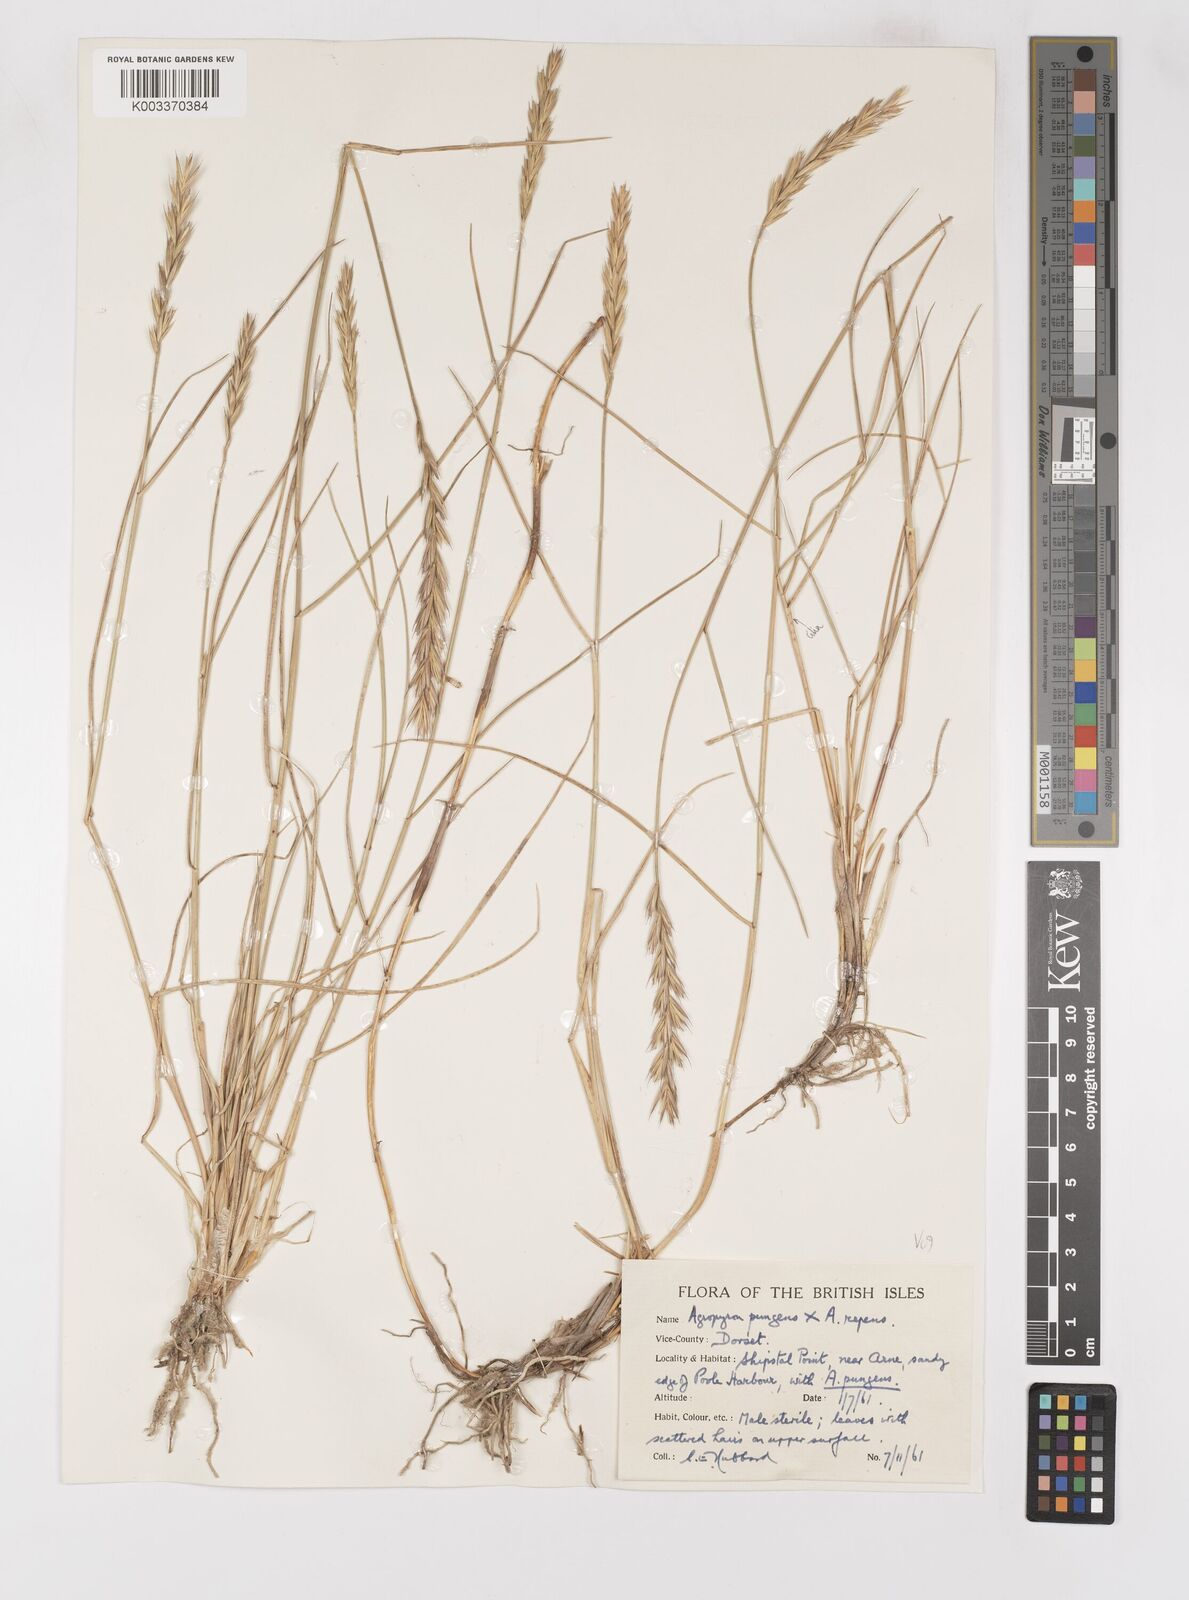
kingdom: Plantae
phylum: Tracheophyta
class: Liliopsida
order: Poales
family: Poaceae
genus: Elymus
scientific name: Elymus oliveri
